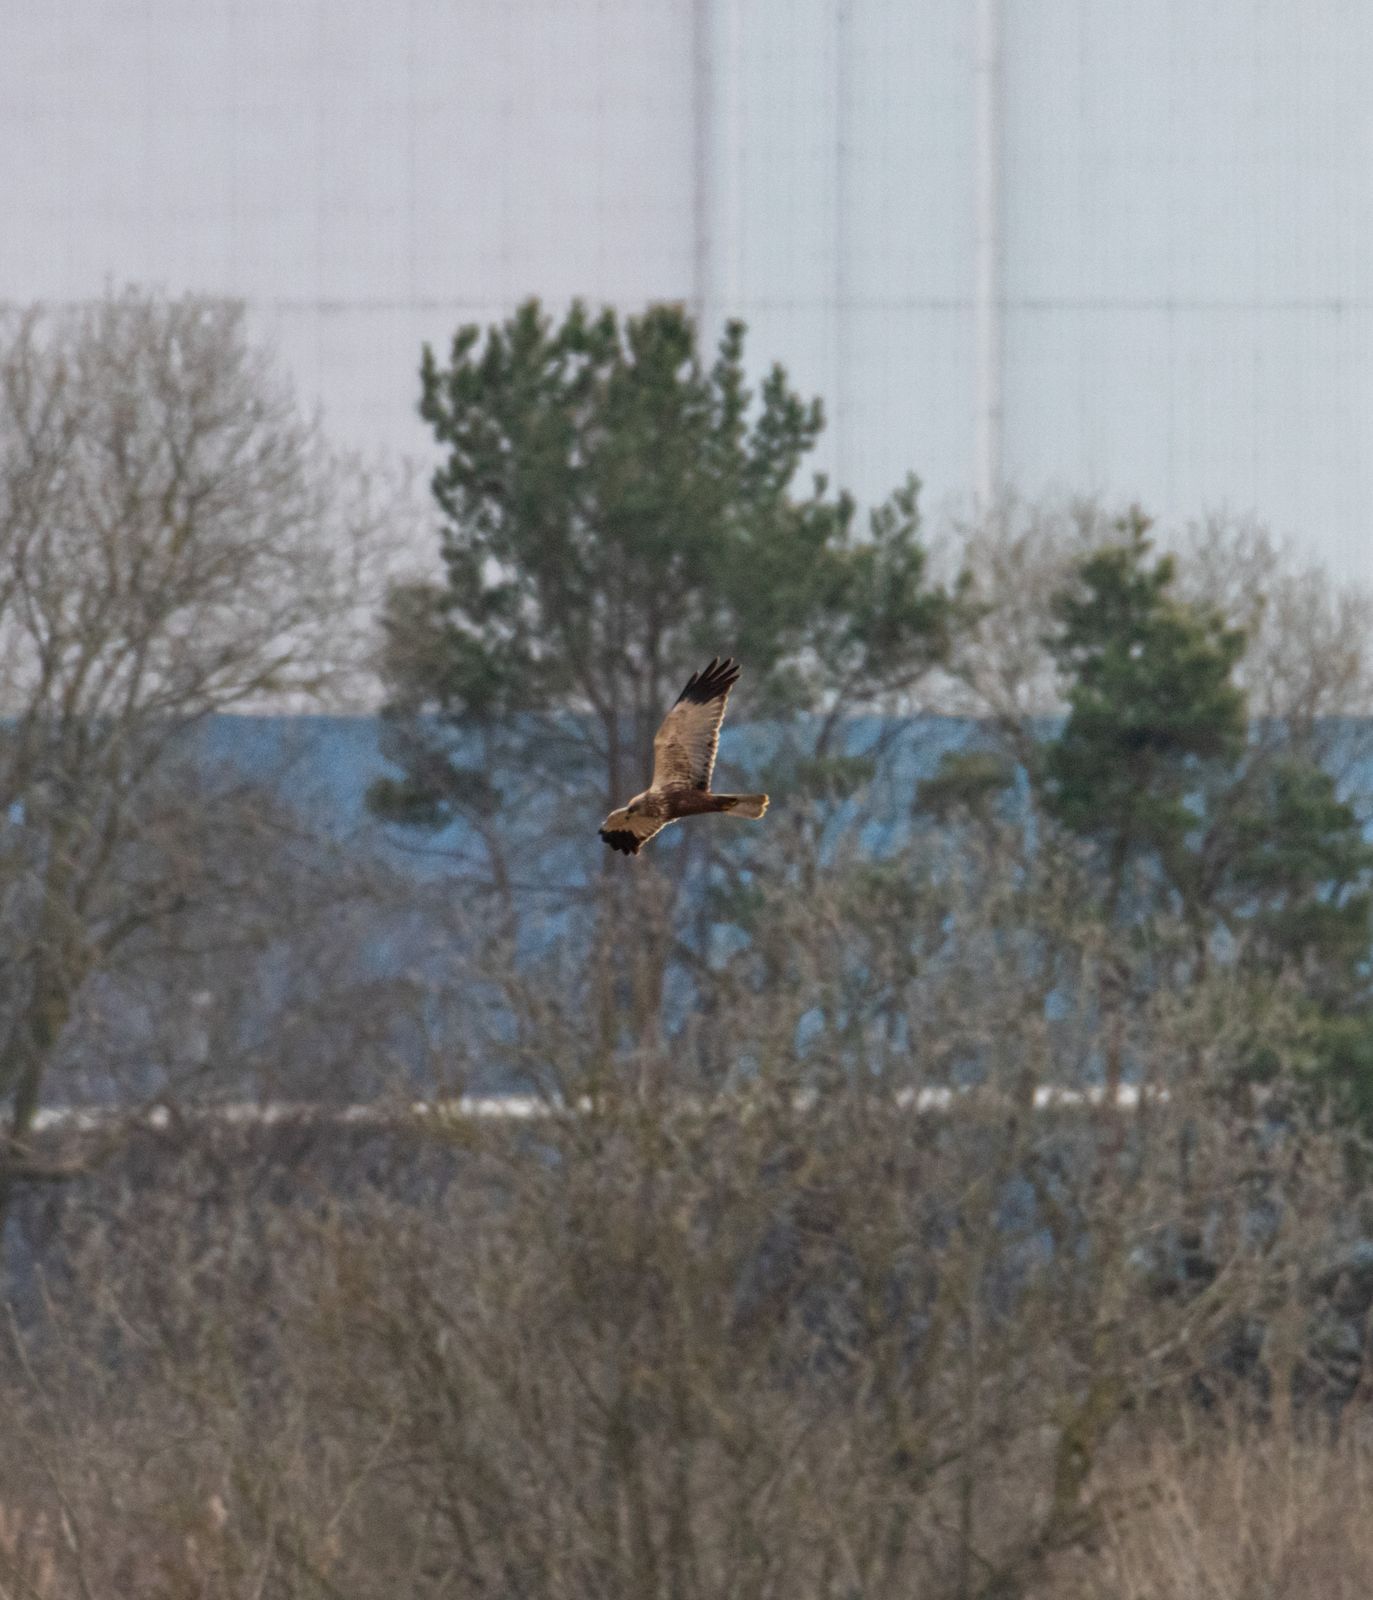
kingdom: Animalia
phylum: Chordata
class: Aves
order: Accipitriformes
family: Accipitridae
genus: Circus
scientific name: Circus aeruginosus
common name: Western marsh harrier
